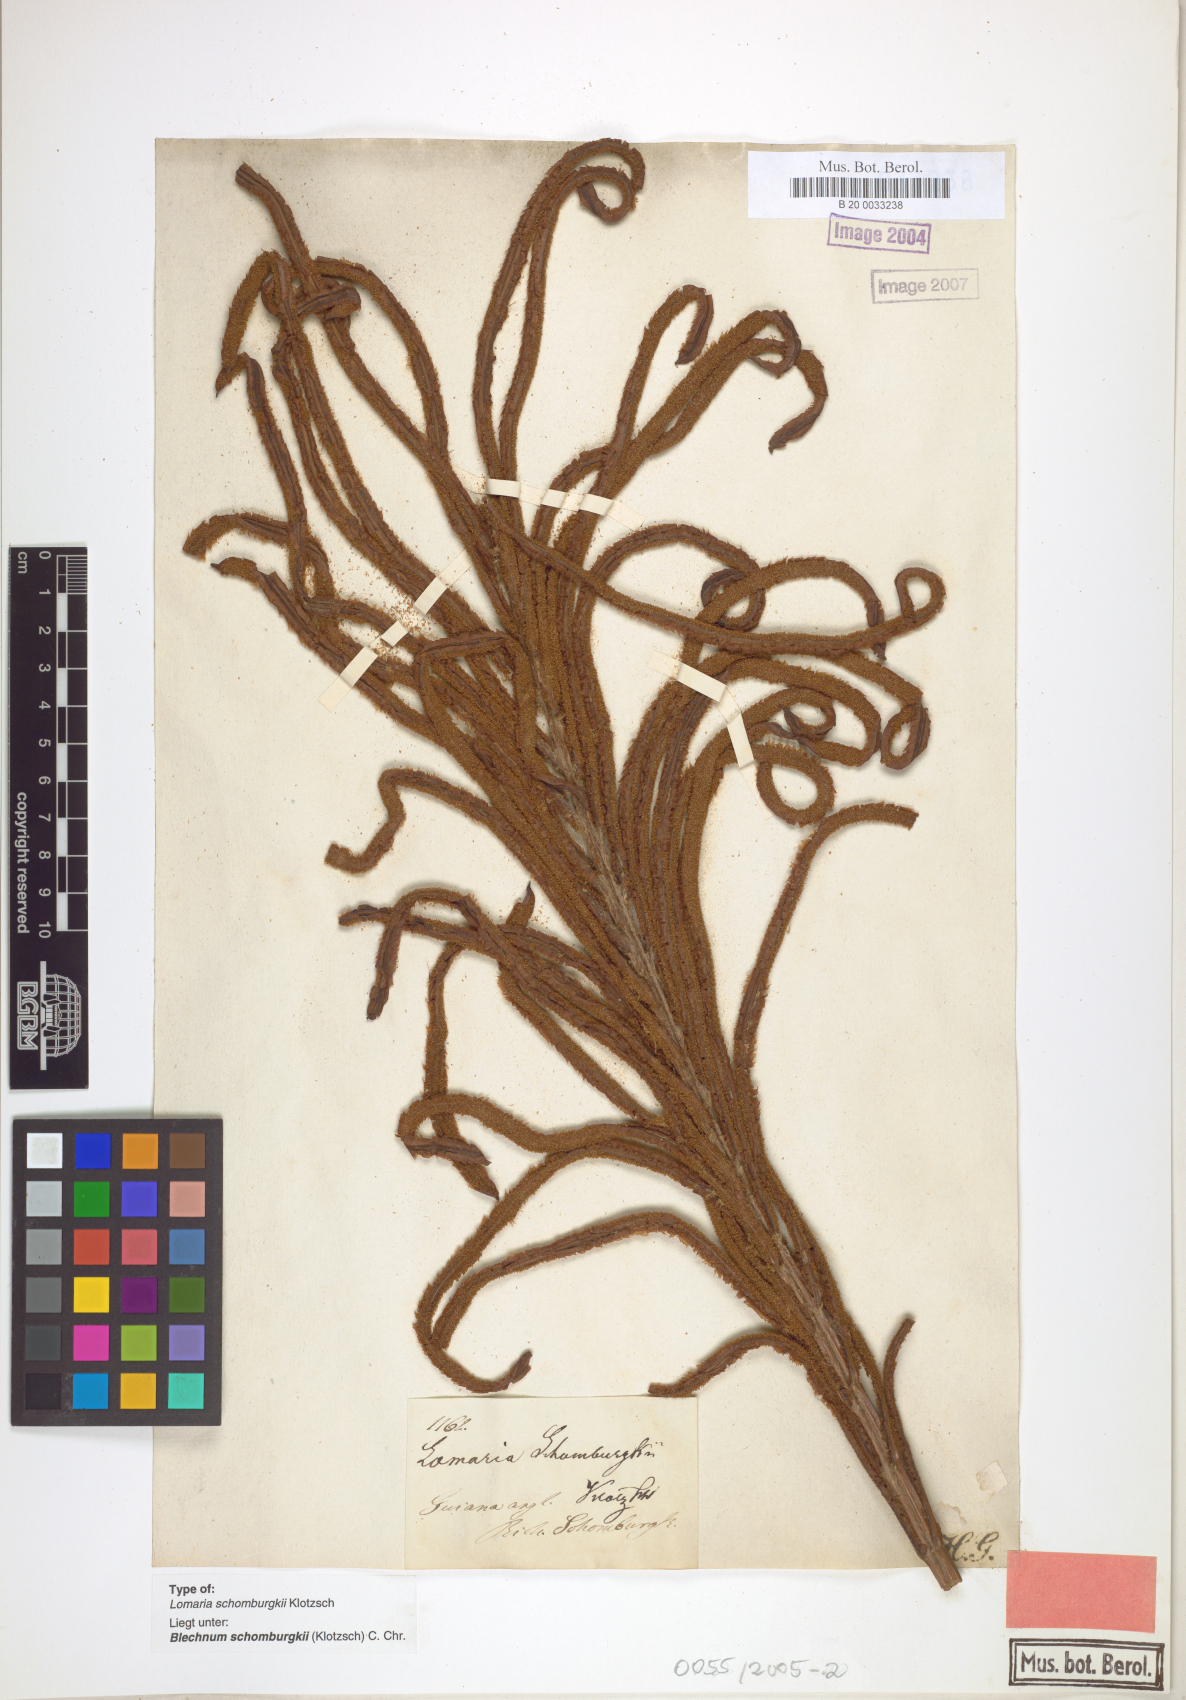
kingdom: Plantae
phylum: Tracheophyta
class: Polypodiopsida
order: Polypodiales
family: Blechnaceae
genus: Lomariocycas
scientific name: Lomariocycas schomburgkii
